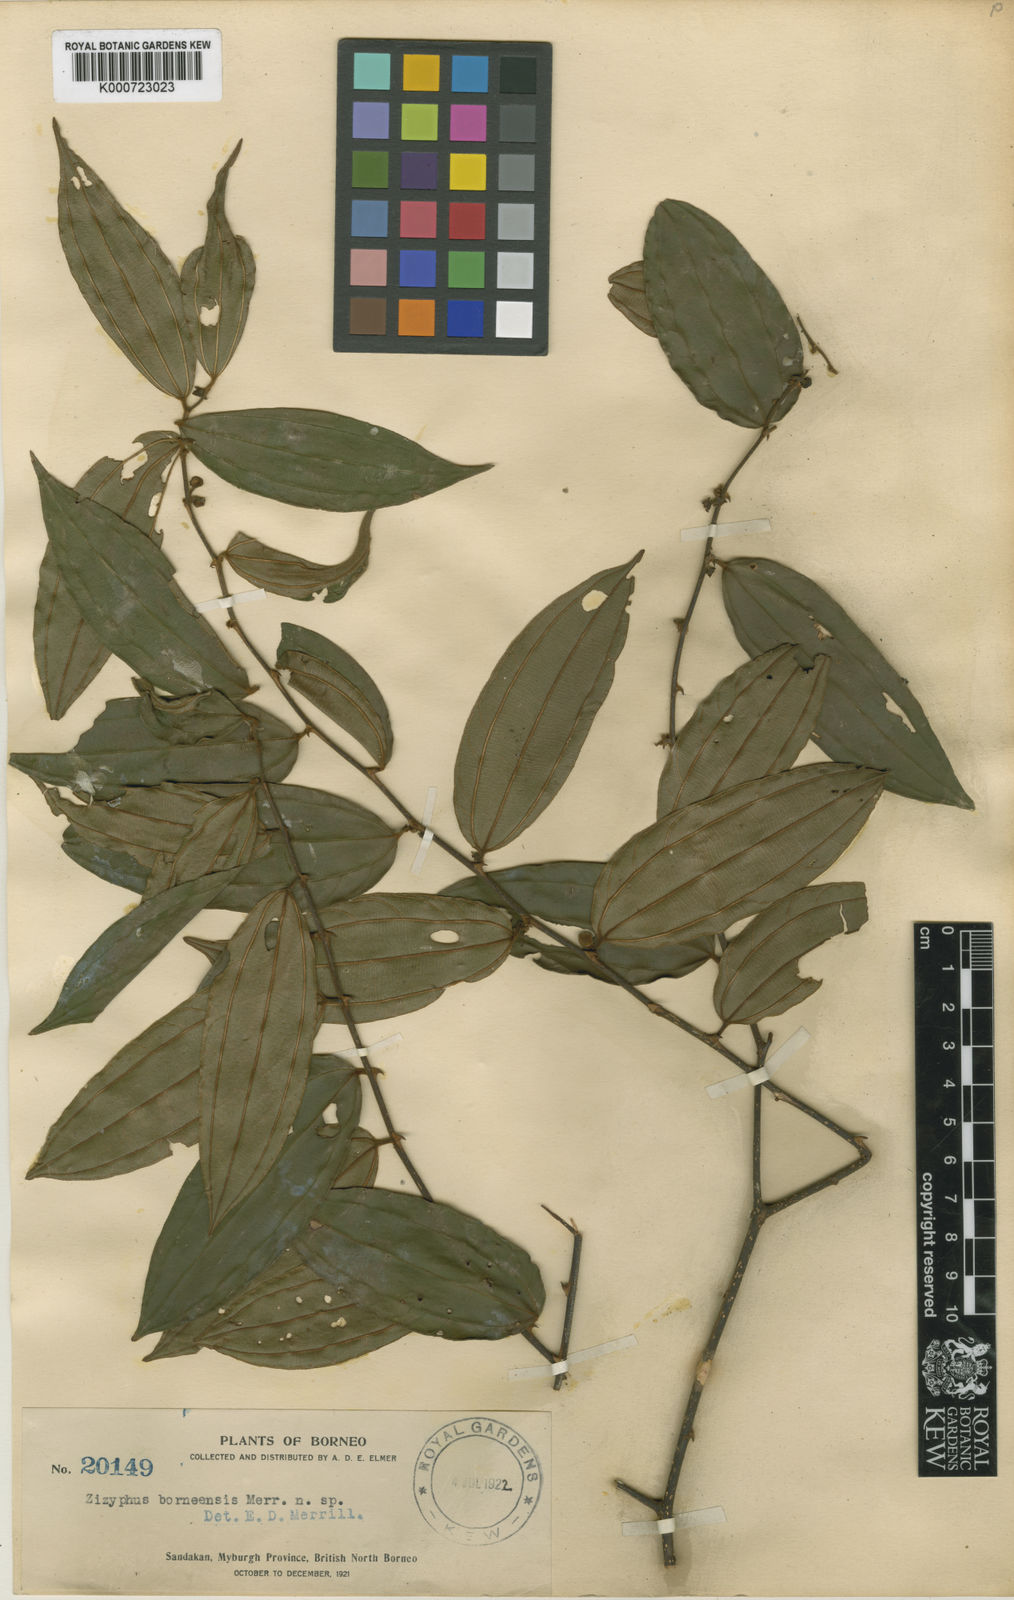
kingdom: Plantae
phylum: Tracheophyta
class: Magnoliopsida
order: Rosales
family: Rhamnaceae
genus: Ziziphus
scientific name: Ziziphus borneensis
